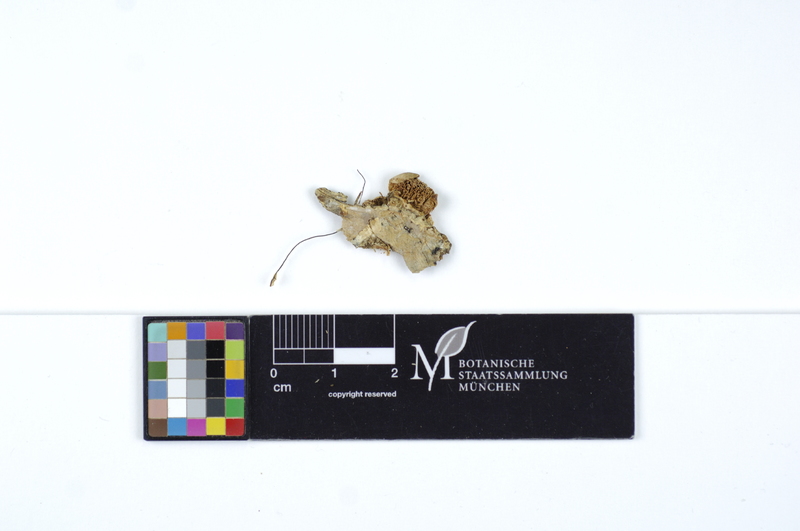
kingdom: Fungi
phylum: Basidiomycota
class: Agaricomycetes
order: Polyporales
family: Cerrenaceae
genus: Cerrena
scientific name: Cerrena zonata
